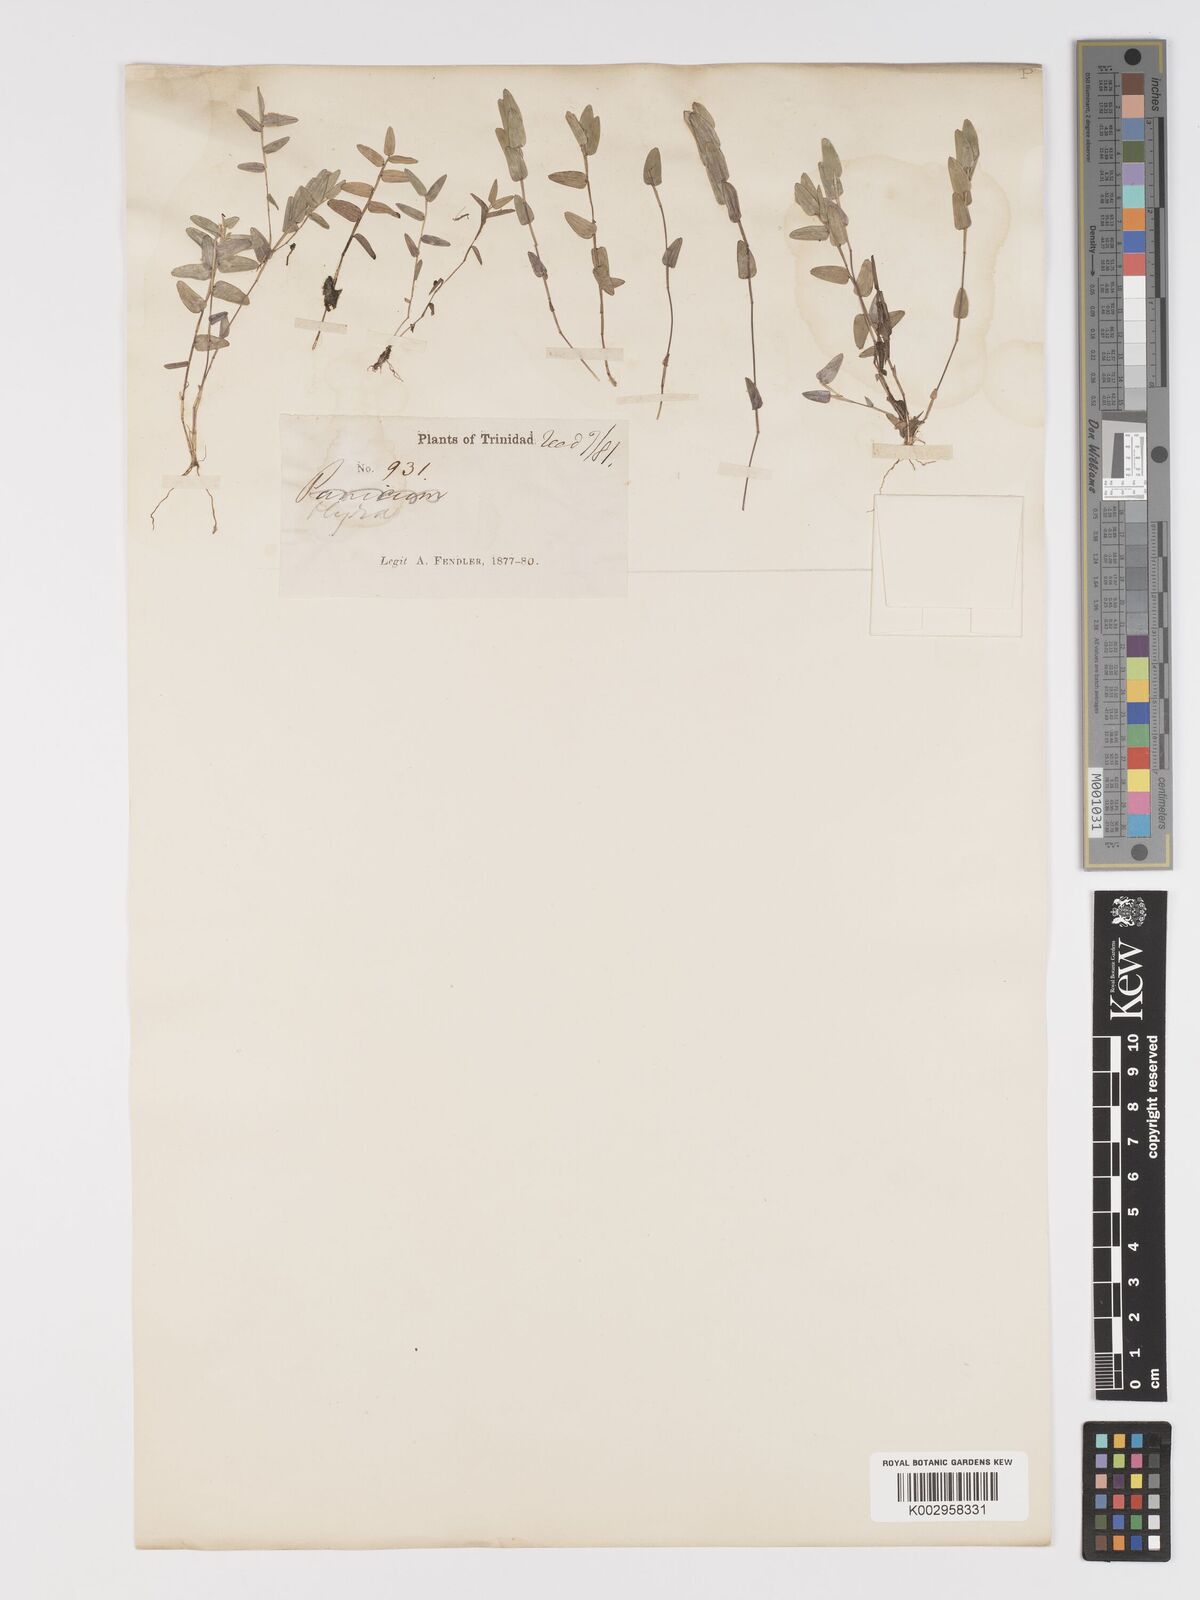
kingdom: Plantae
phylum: Tracheophyta
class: Liliopsida
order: Poales
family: Poaceae
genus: Raddiella
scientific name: Raddiella esenbeckii
